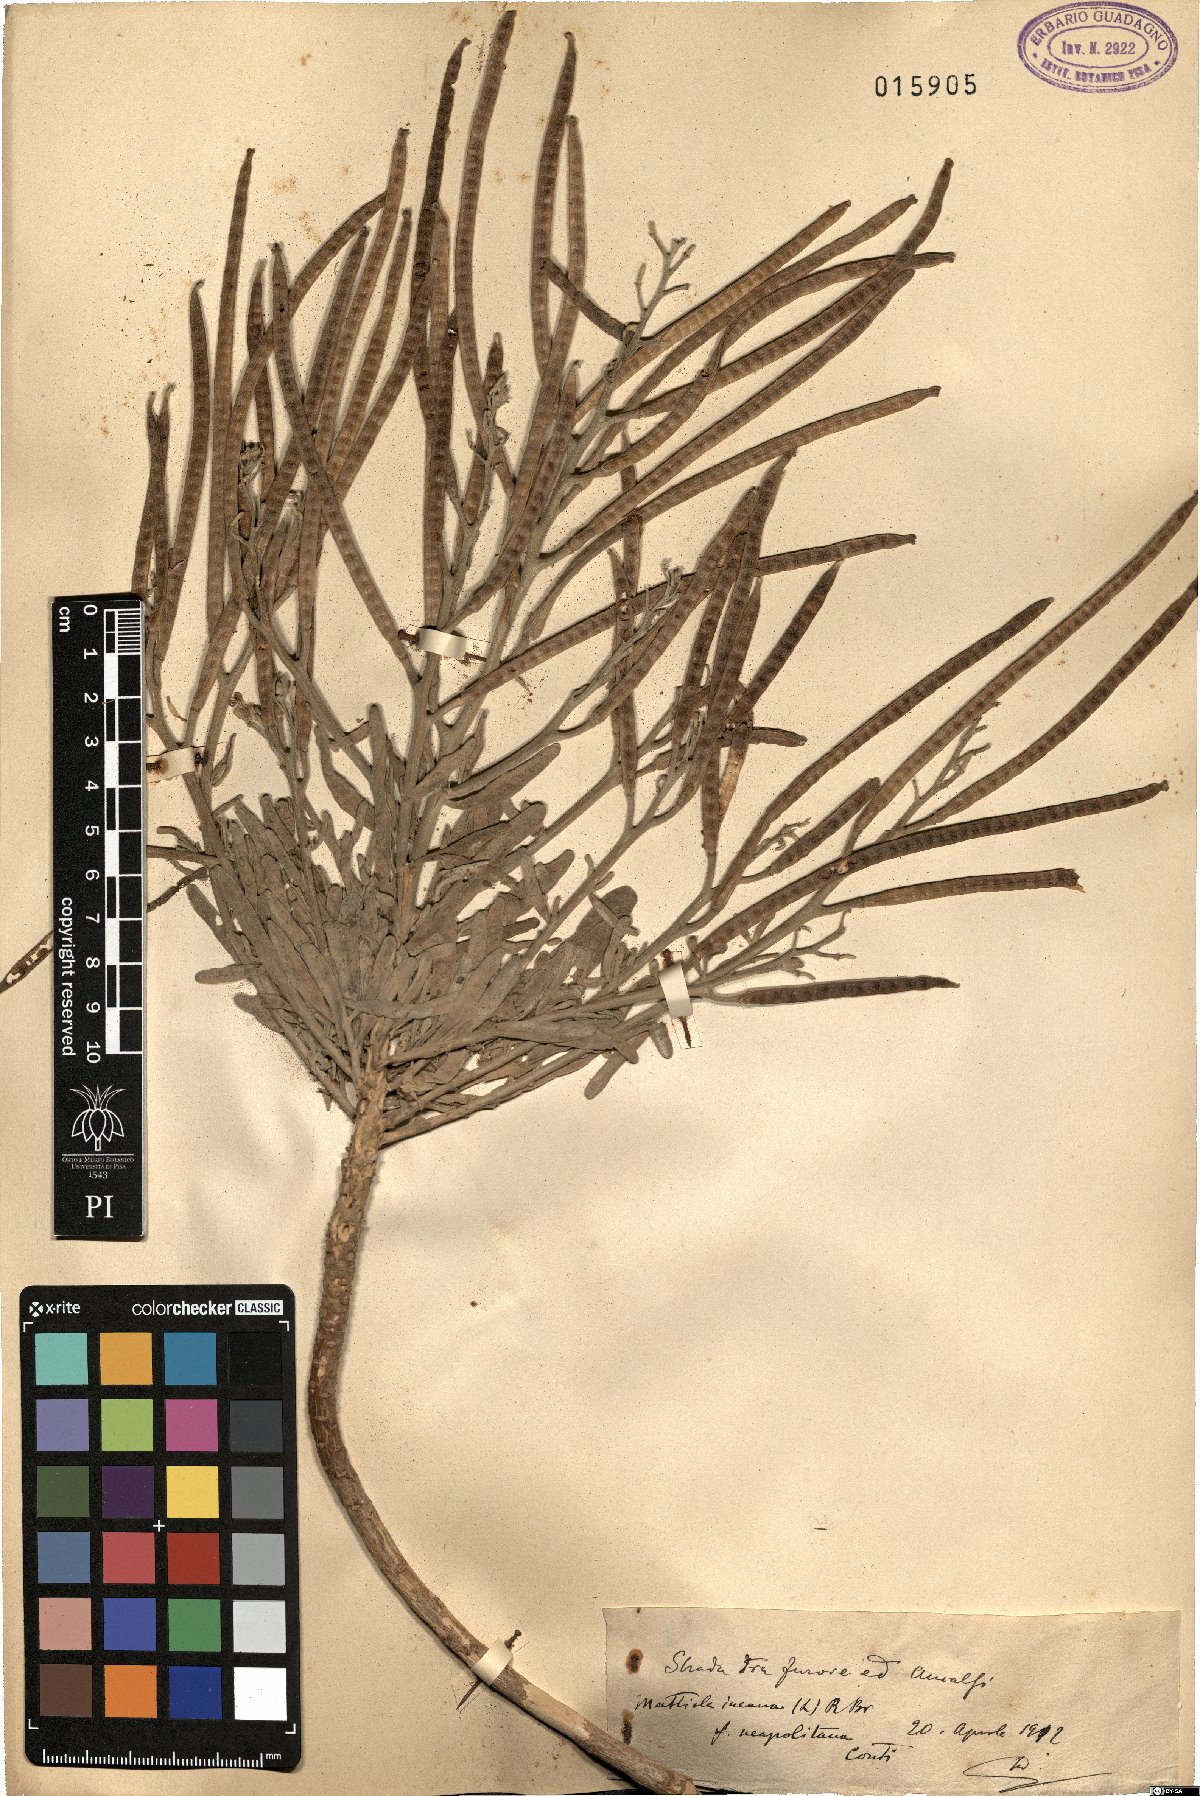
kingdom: Plantae
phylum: Tracheophyta
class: Magnoliopsida
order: Brassicales
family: Brassicaceae
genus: Matthiola
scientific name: Matthiola incana
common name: Hoary stock
